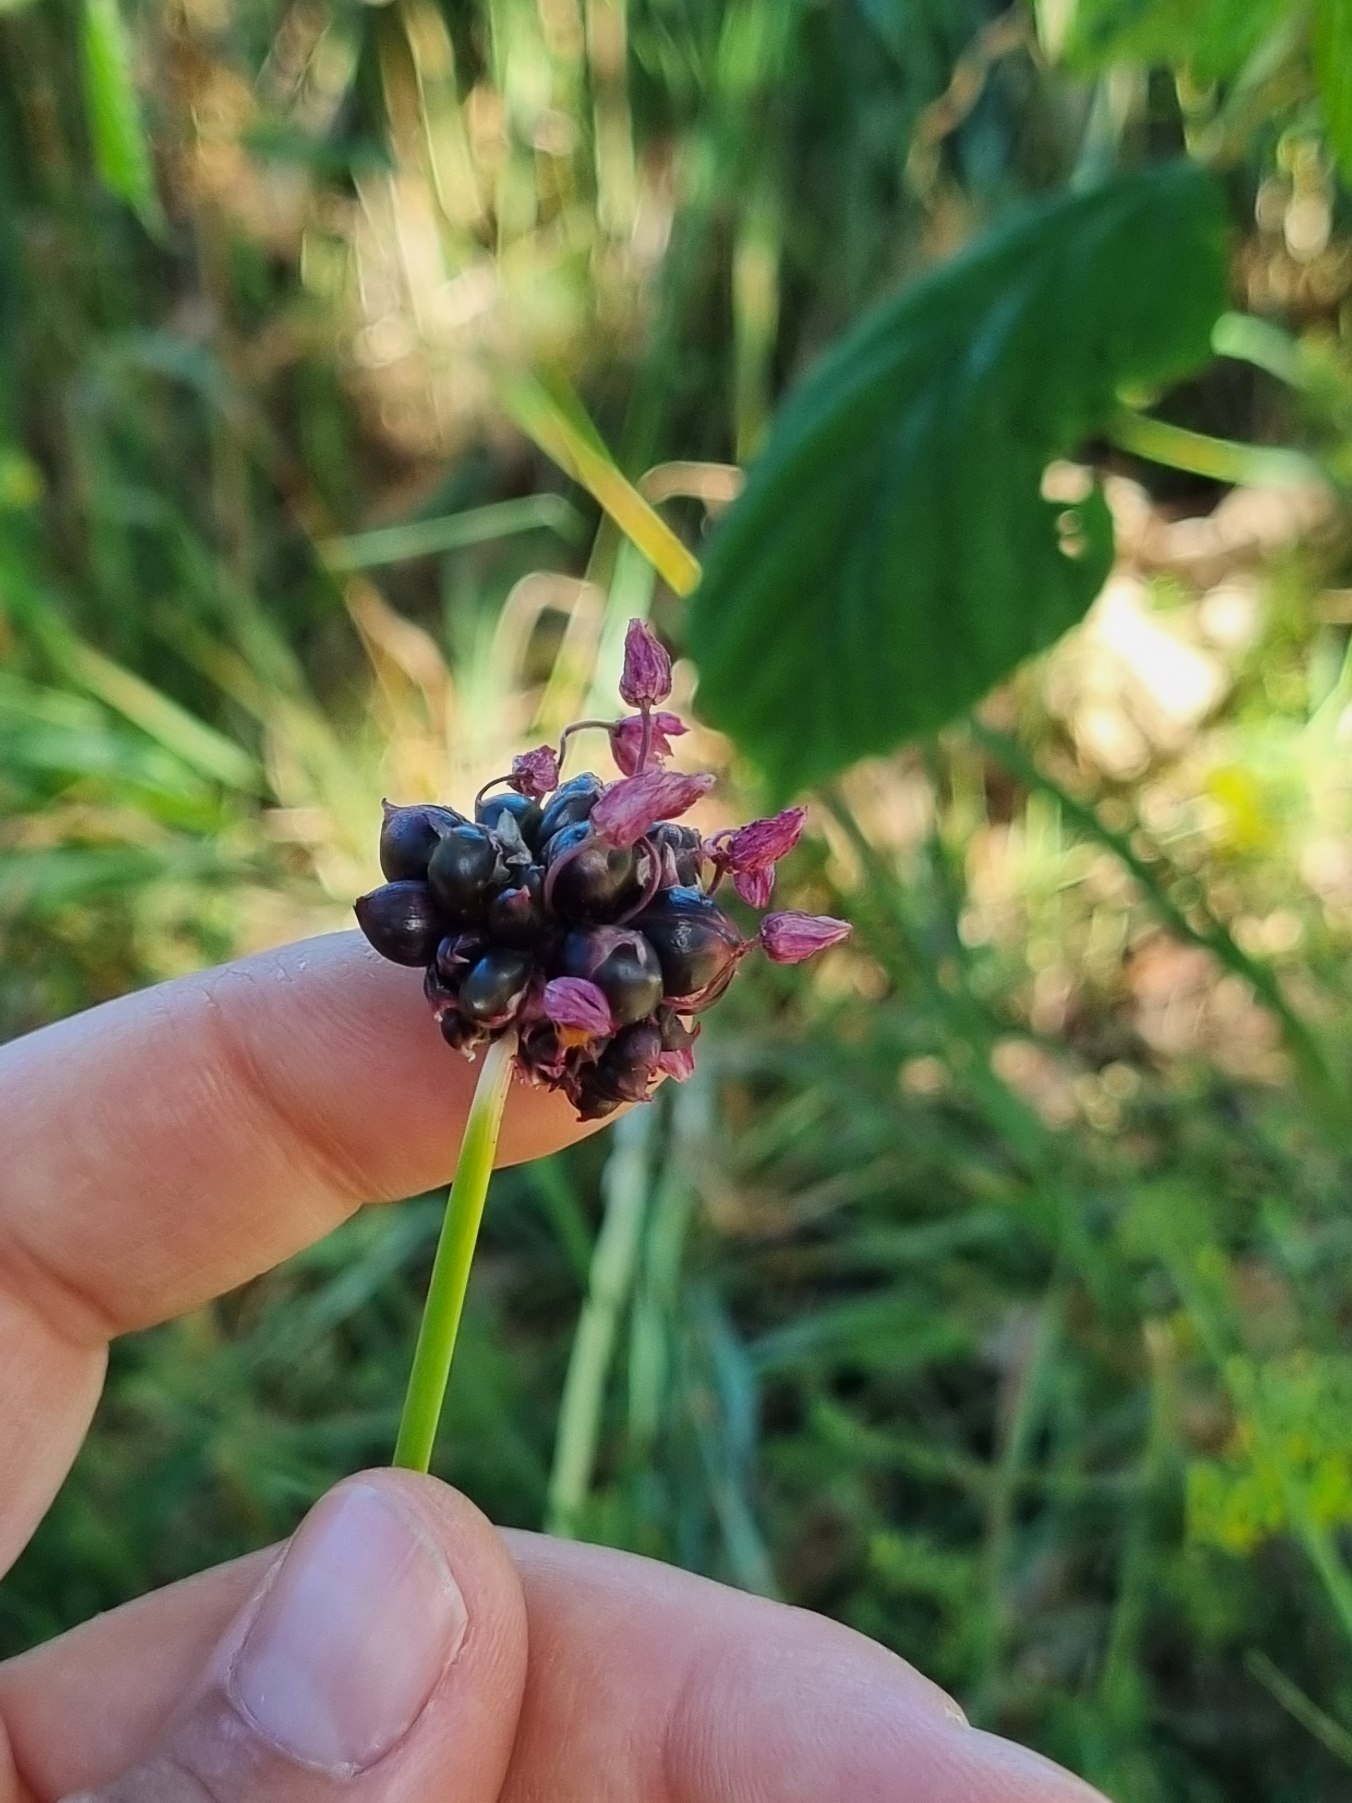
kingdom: Plantae
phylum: Tracheophyta
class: Liliopsida
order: Asparagales
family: Amaryllidaceae
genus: Allium
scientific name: Allium scorodoprasum
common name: Skov-løg
